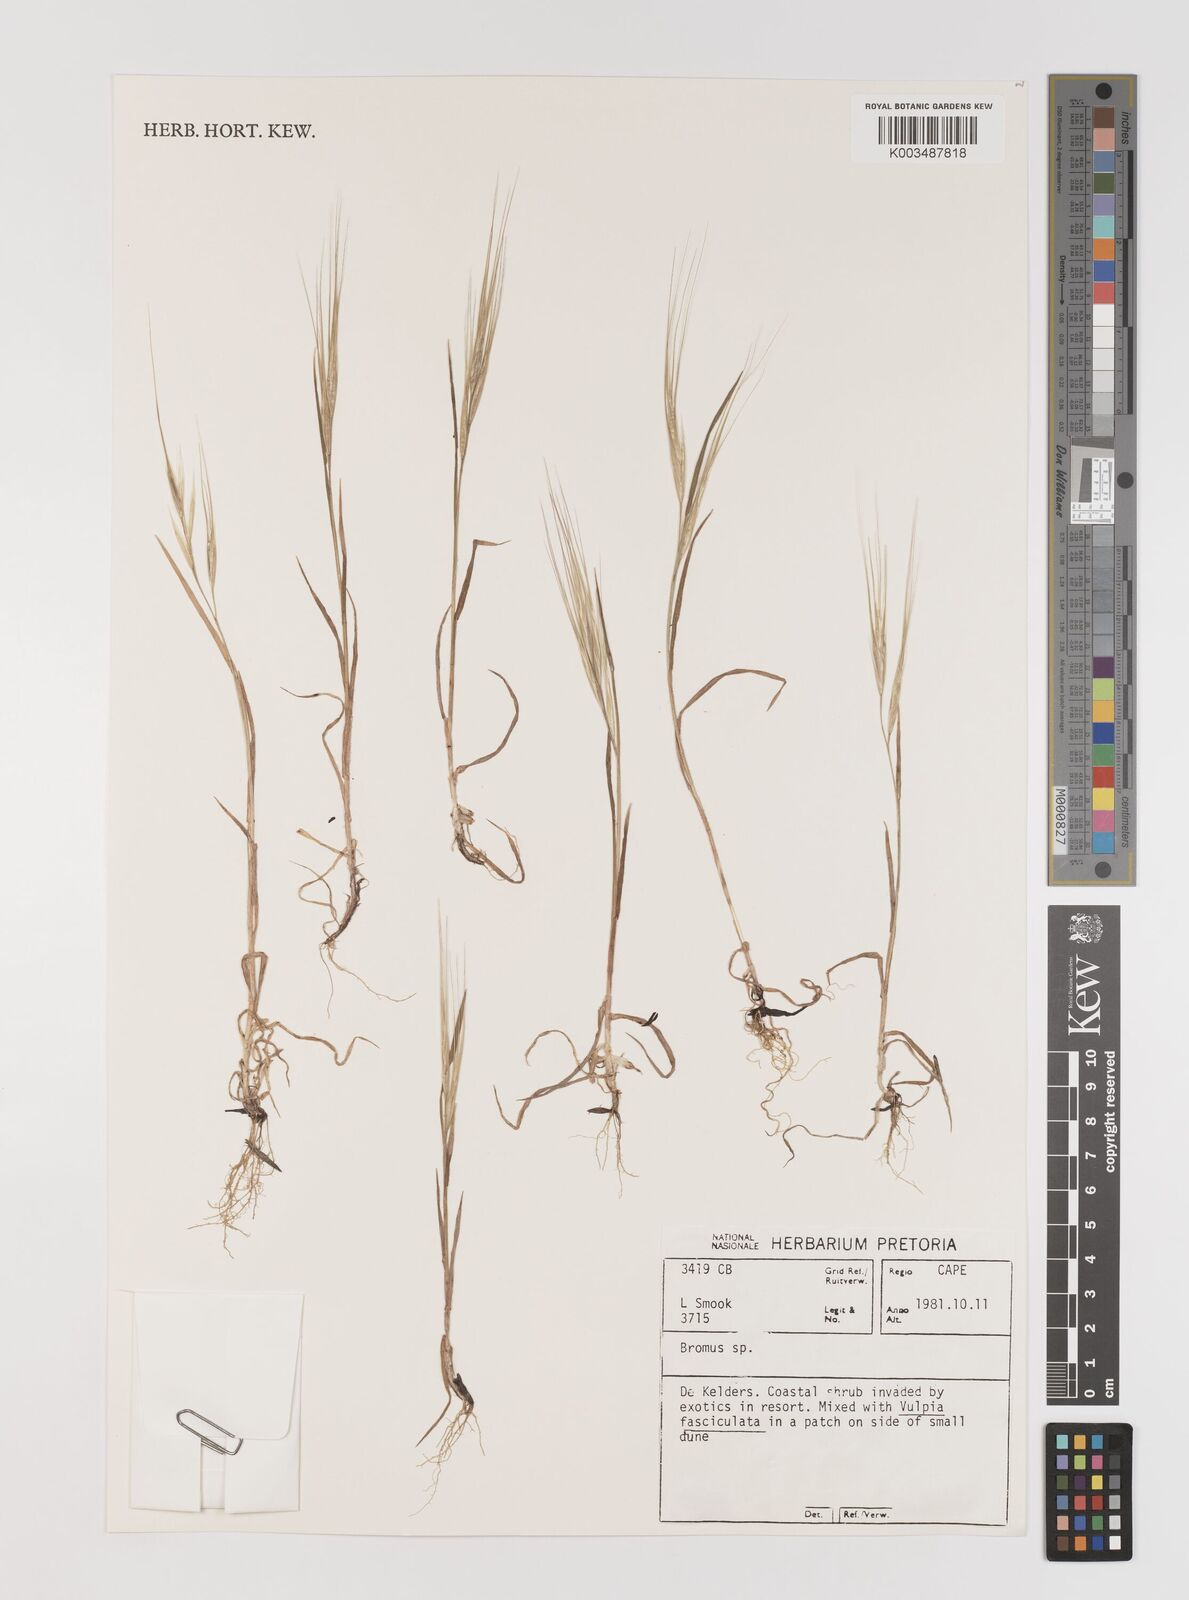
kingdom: Plantae
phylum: Tracheophyta
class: Liliopsida
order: Poales
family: Poaceae
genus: Bromus
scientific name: Bromus
